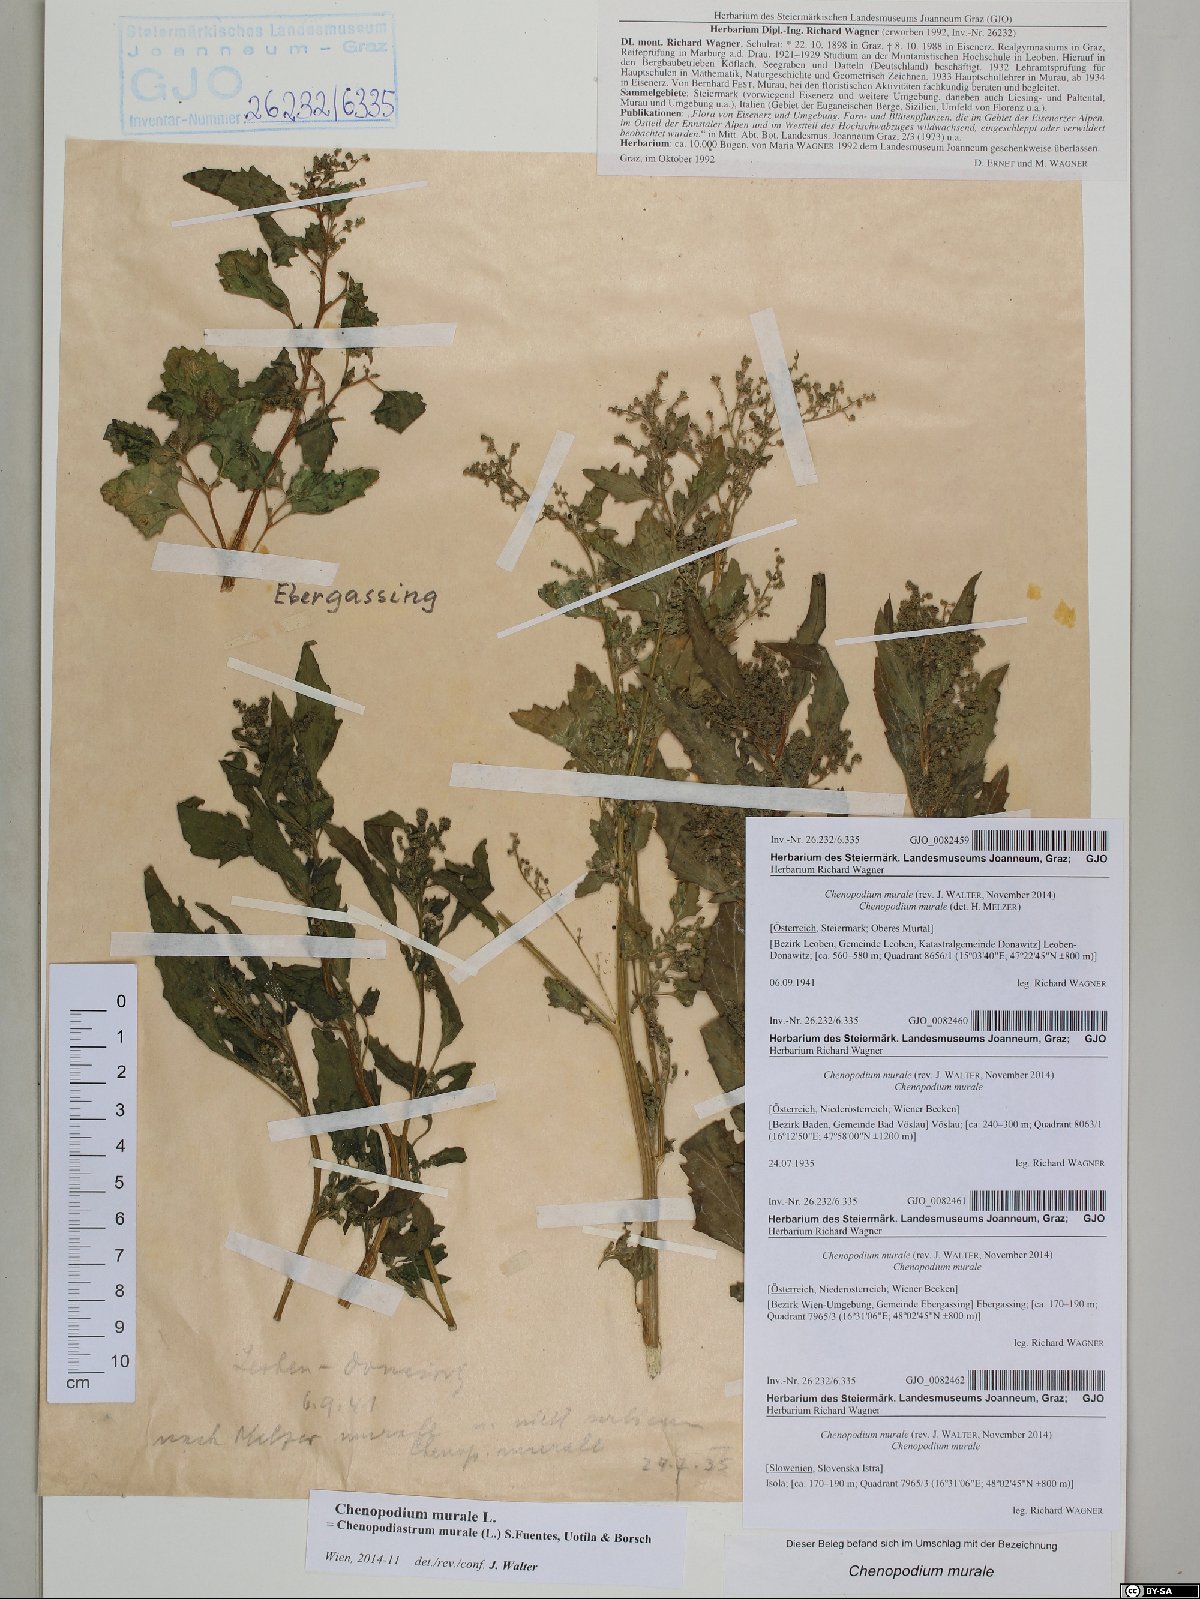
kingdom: Plantae
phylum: Tracheophyta
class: Magnoliopsida
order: Caryophyllales
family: Amaranthaceae
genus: Chenopodiastrum
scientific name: Chenopodiastrum murale
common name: Sowbane
